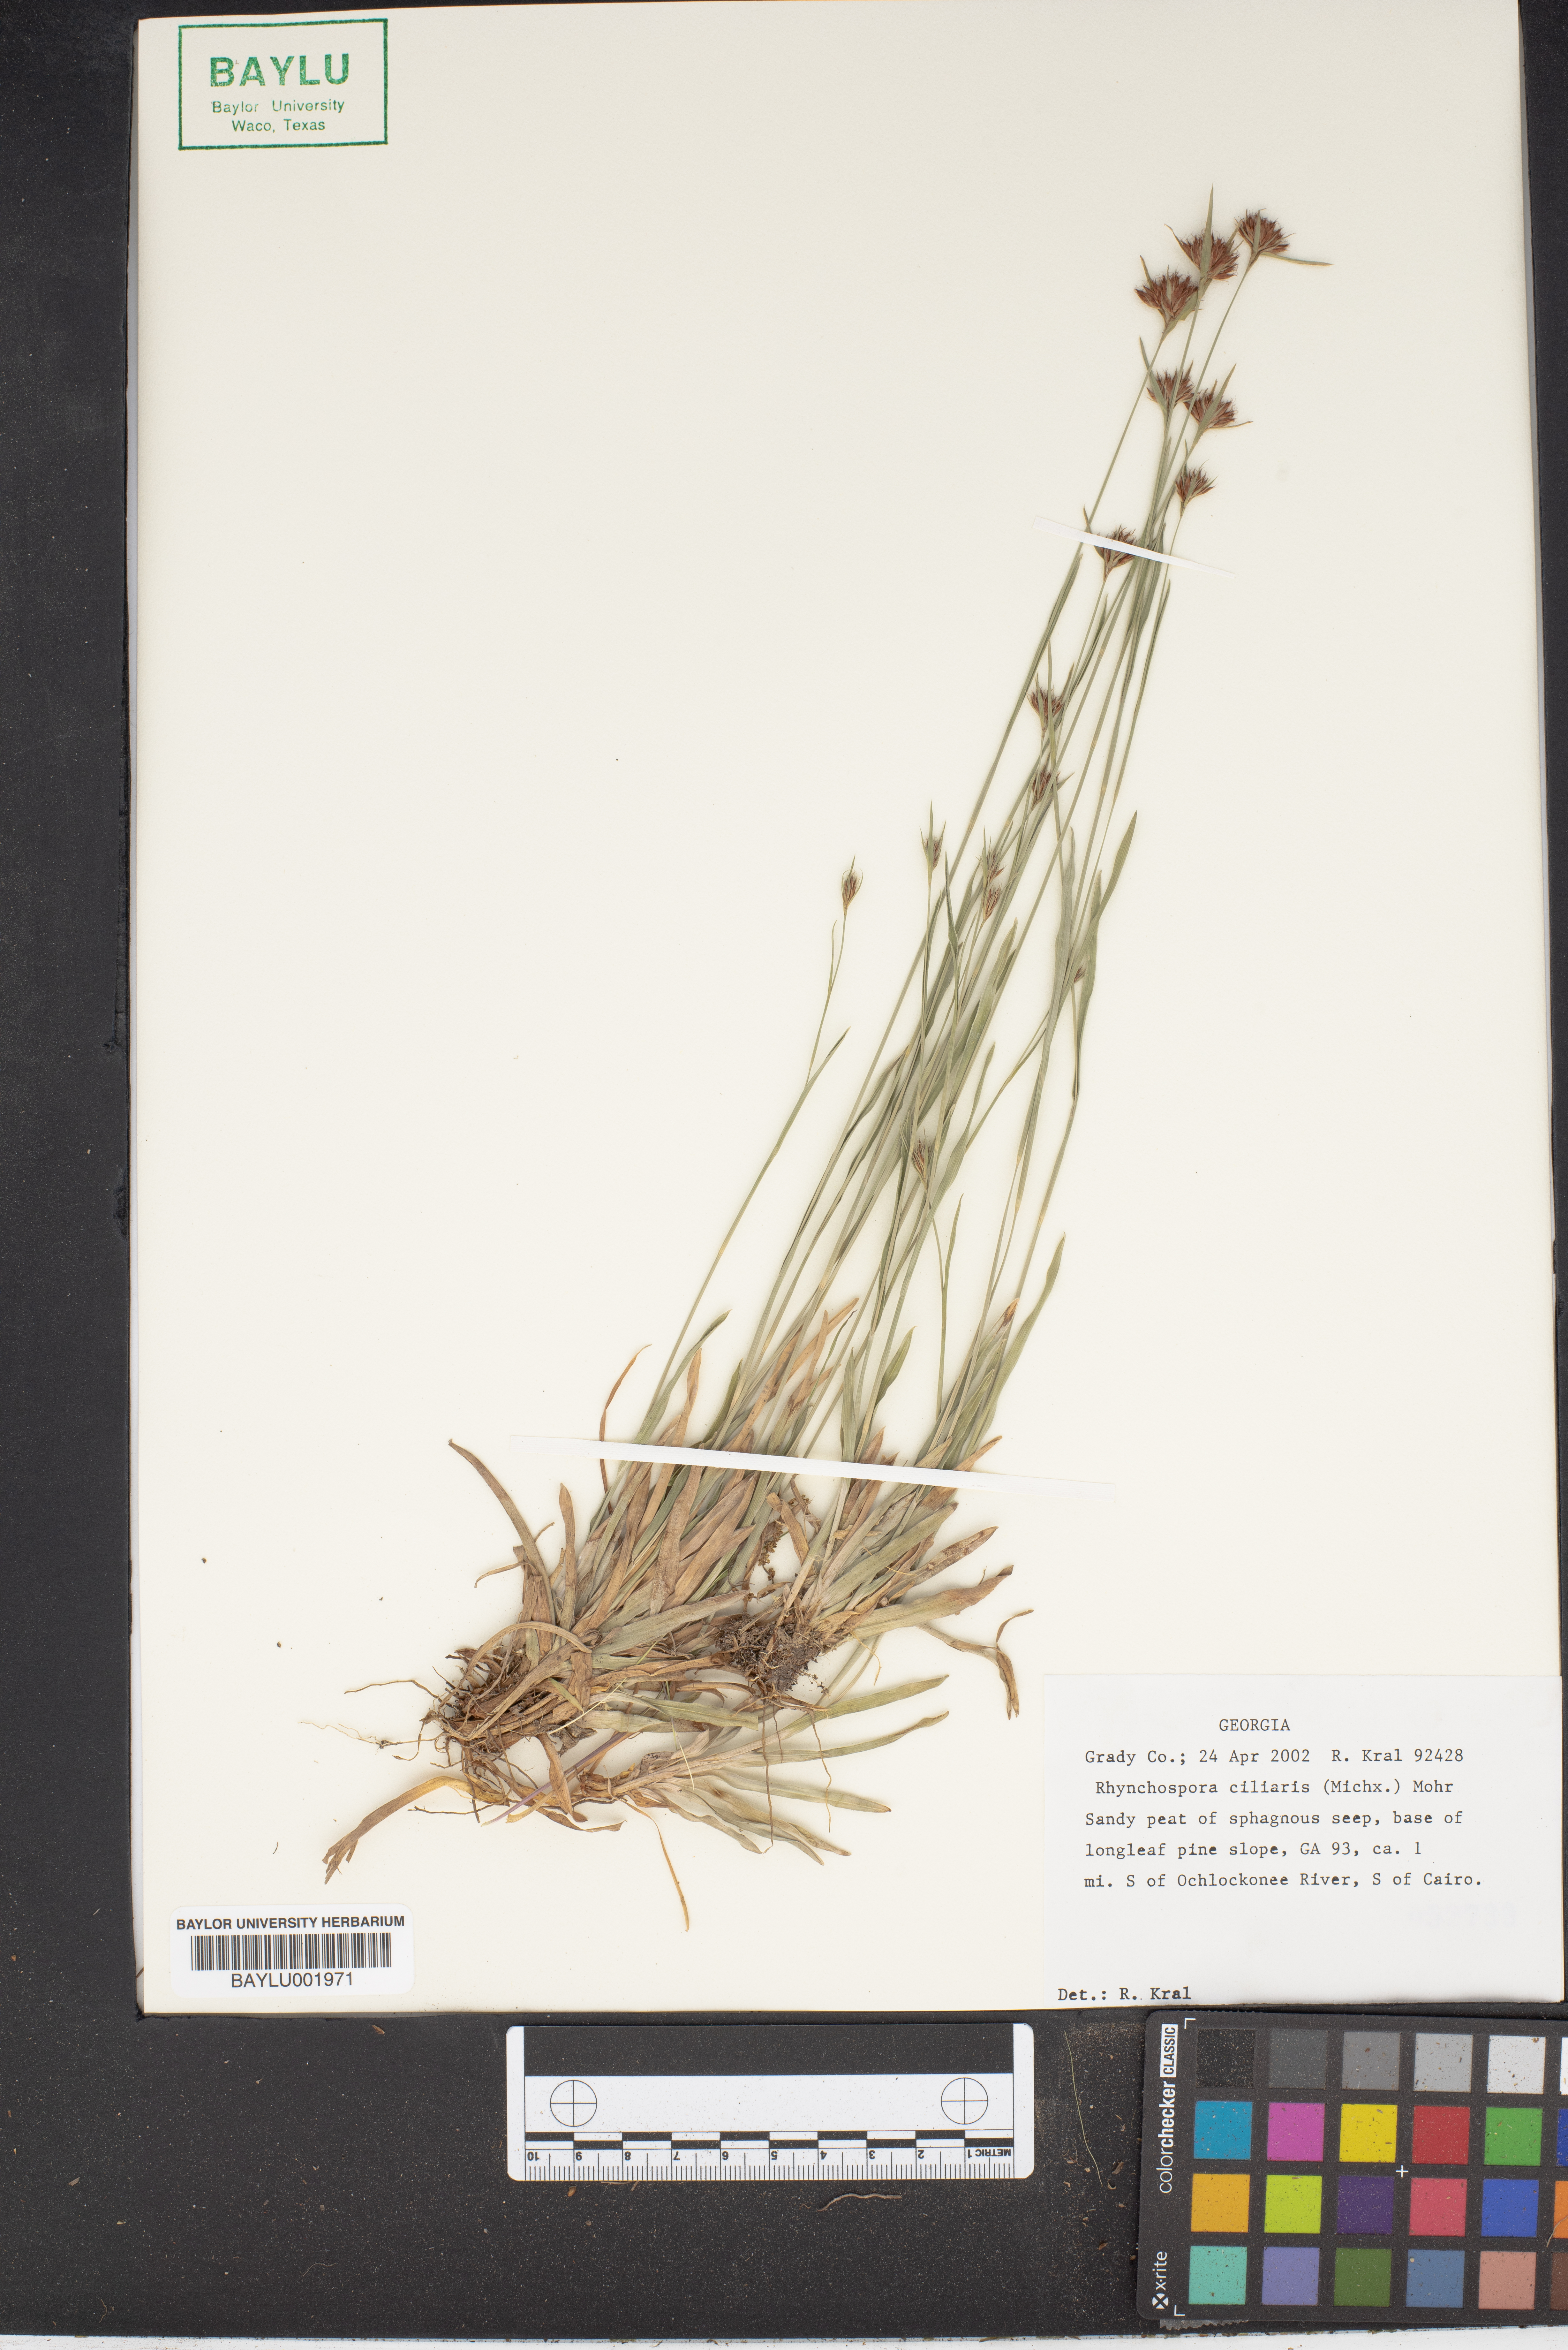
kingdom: Plantae
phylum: Tracheophyta
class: Liliopsida
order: Poales
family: Cyperaceae
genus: Rhynchospora
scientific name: Rhynchospora ciliaris
